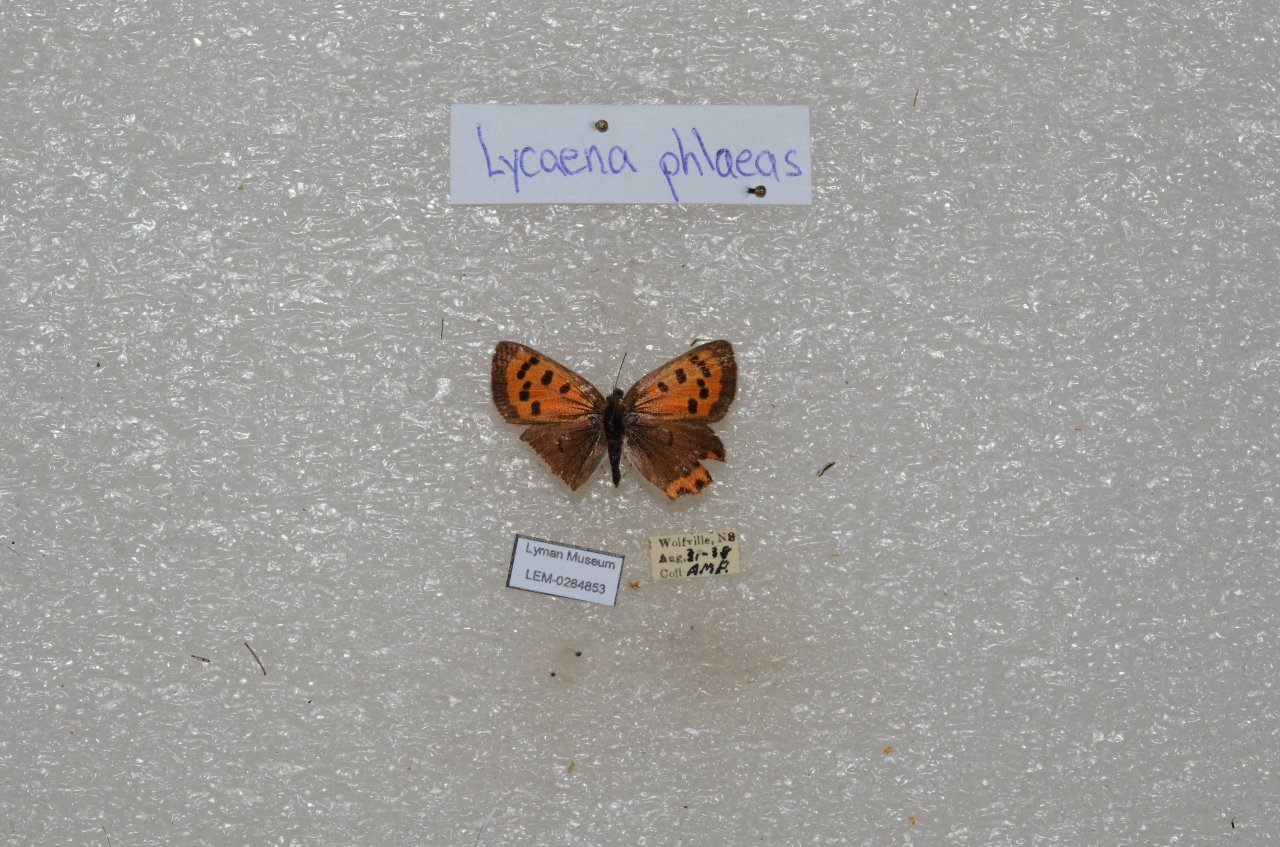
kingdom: Animalia
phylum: Arthropoda
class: Insecta
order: Lepidoptera
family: Lycaenidae
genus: Lycaena
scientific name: Lycaena phlaeas
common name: American Copper
